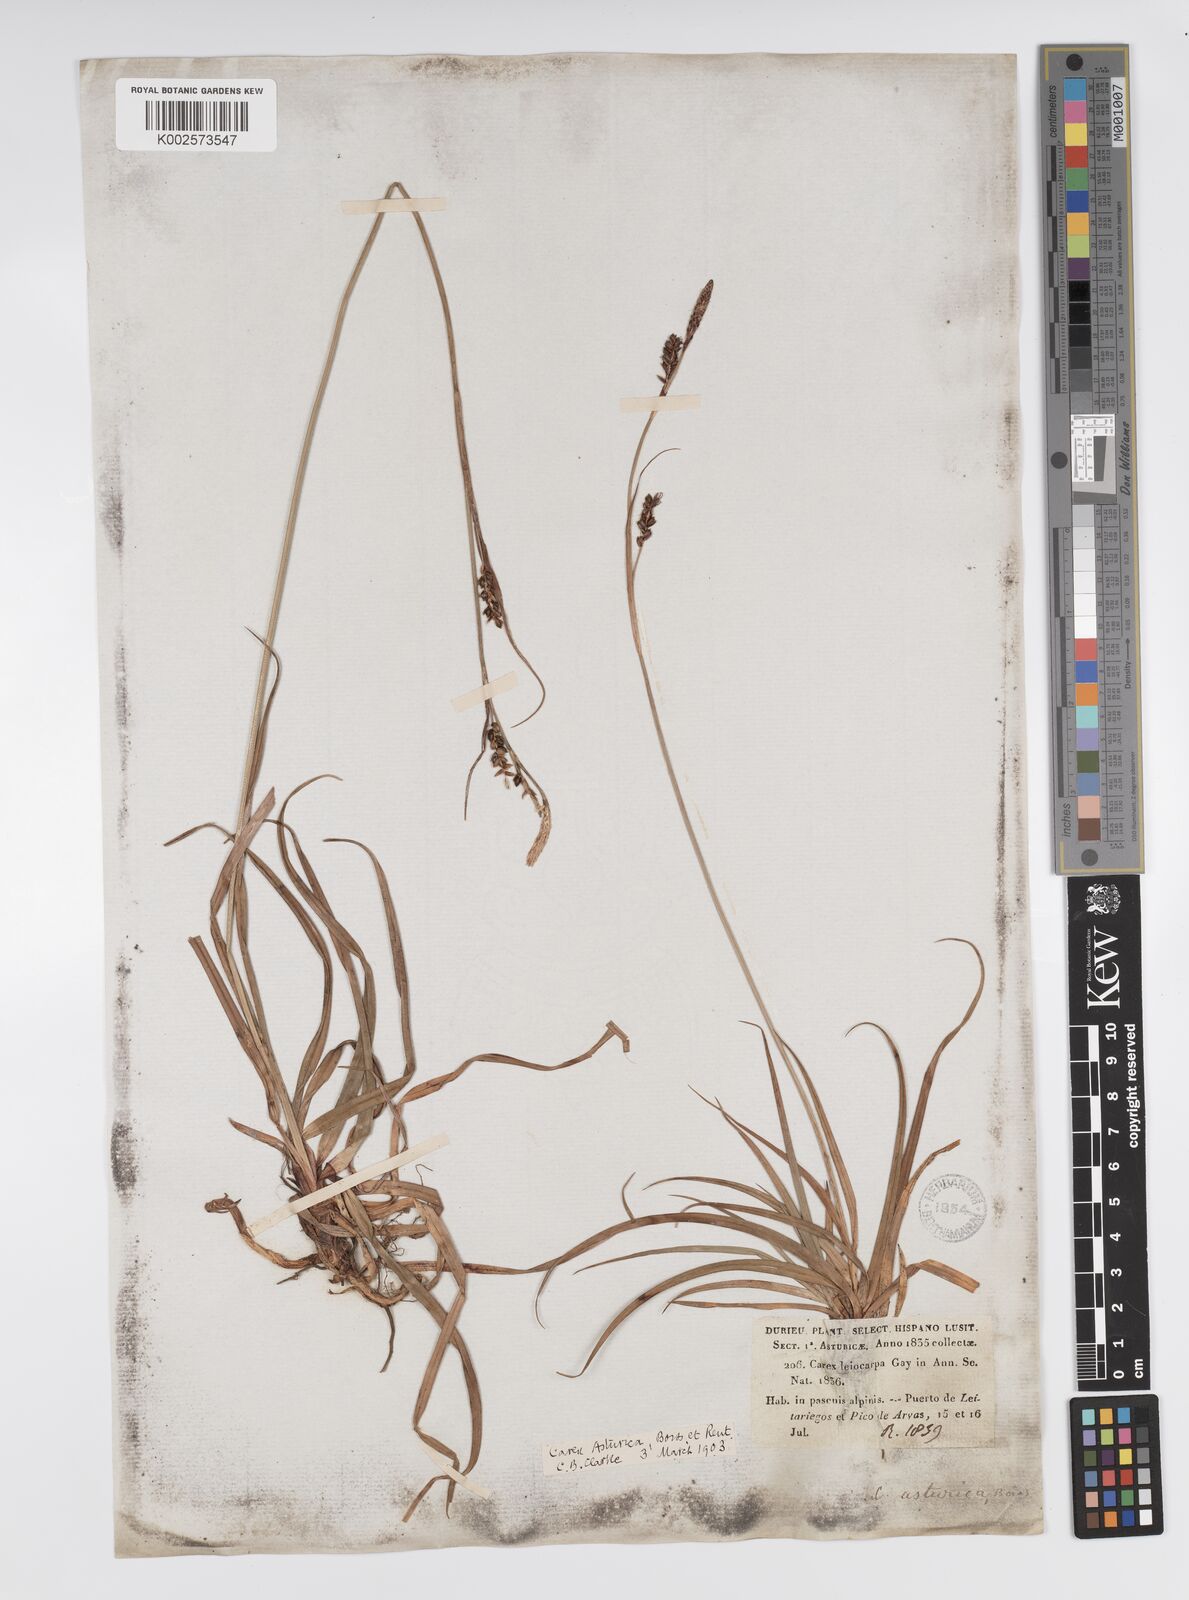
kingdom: Plantae
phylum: Tracheophyta
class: Liliopsida
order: Poales
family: Cyperaceae
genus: Carex
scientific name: Carex asturica
